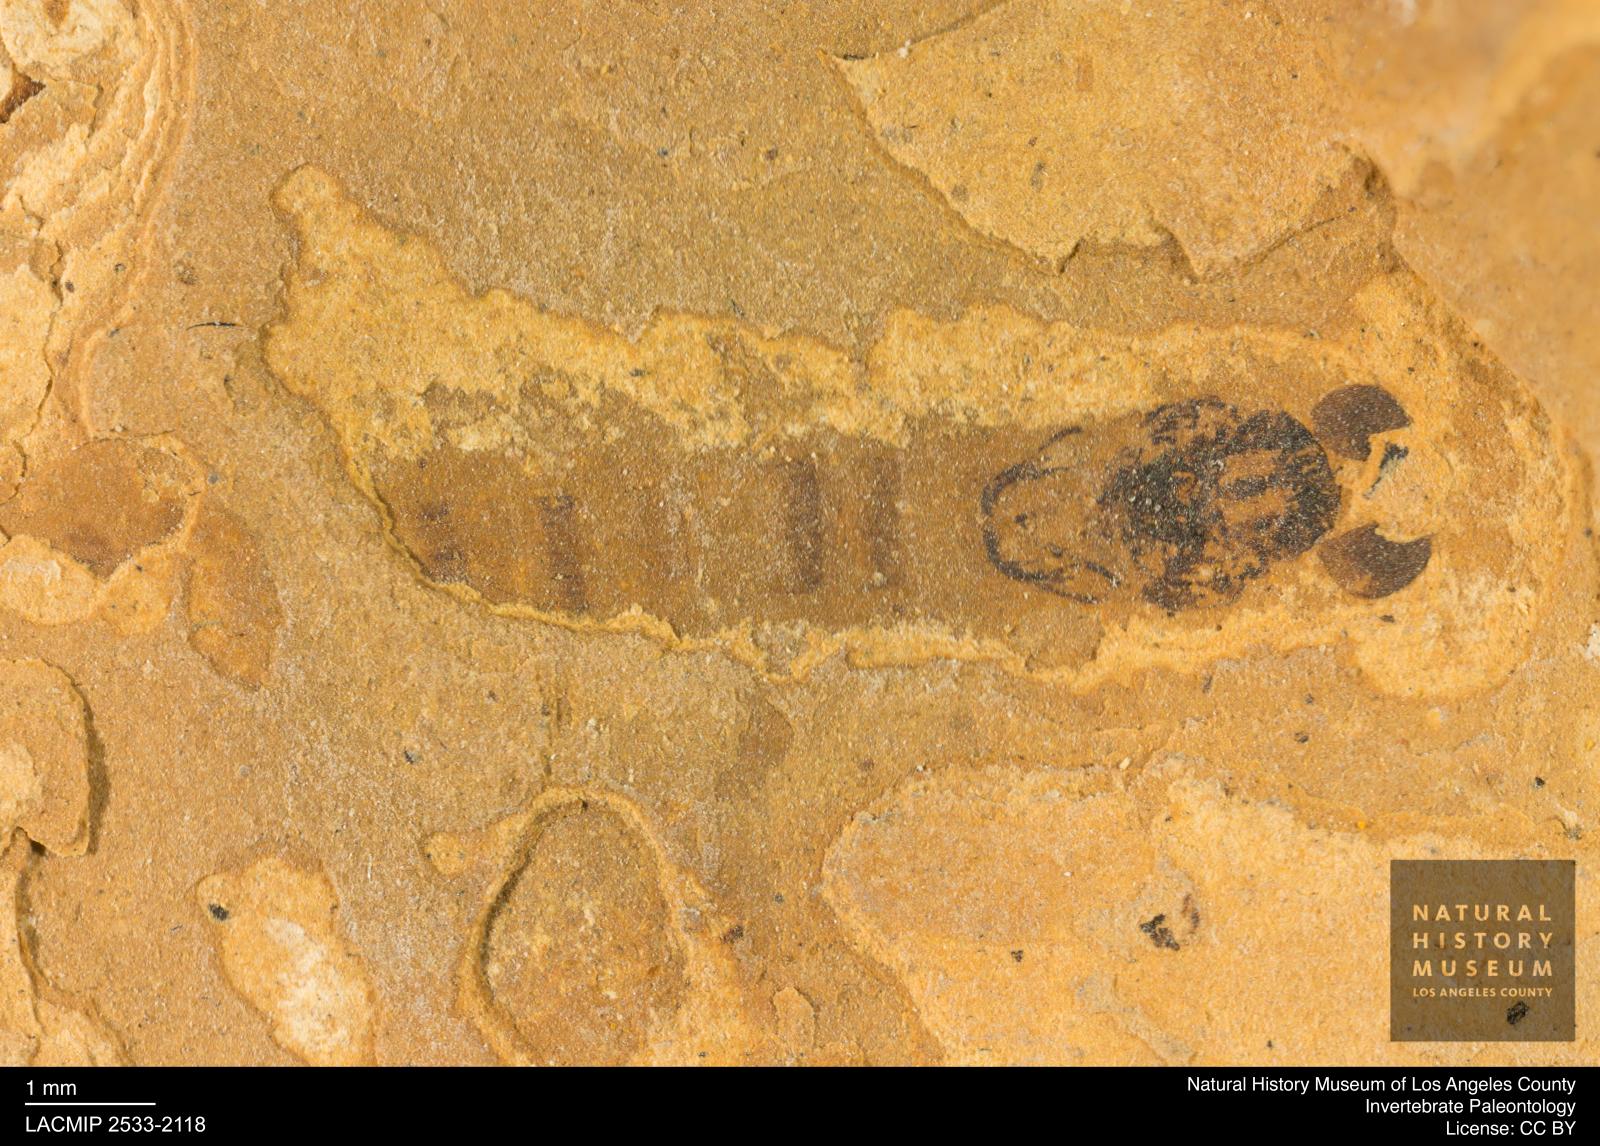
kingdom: Animalia
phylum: Arthropoda
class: Insecta
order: Diptera
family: Chironomidae
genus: Pelopiina
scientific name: Pelopiina
